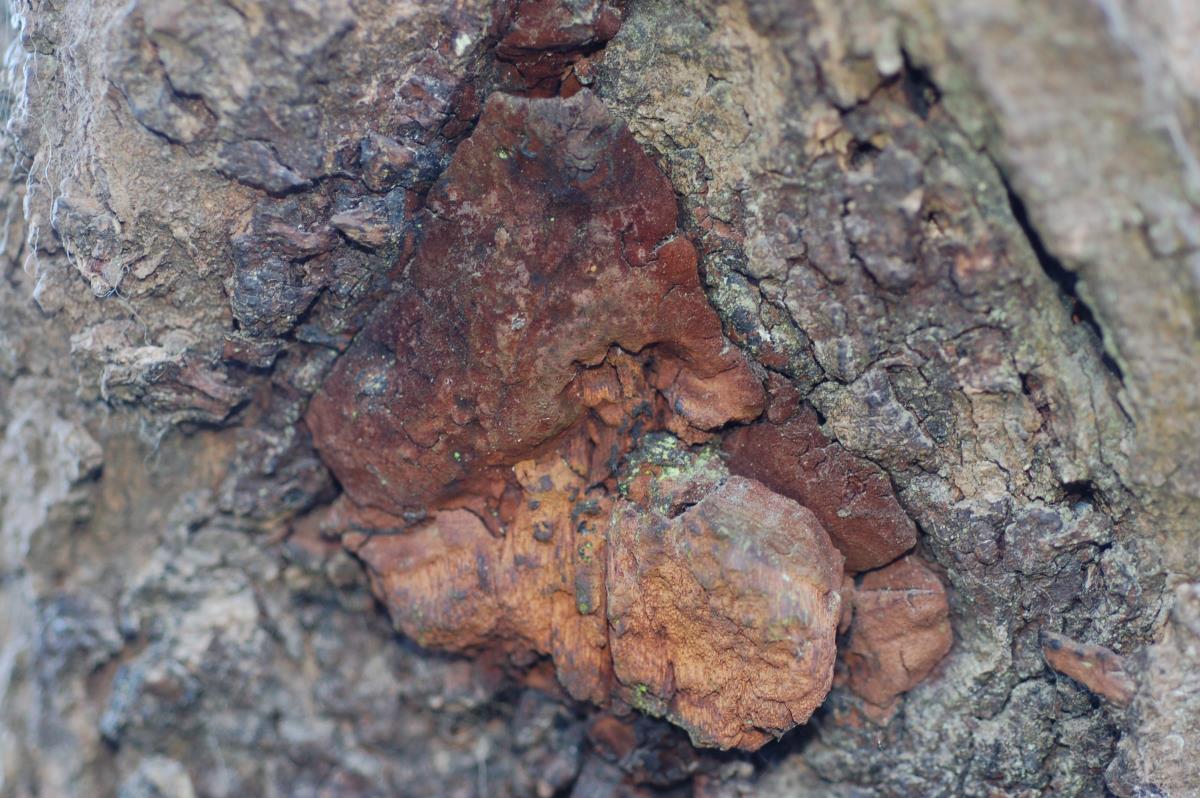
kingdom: Fungi
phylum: Basidiomycota
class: Agaricomycetes
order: Hymenochaetales
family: Hymenochaetaceae
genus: Fomitiporia
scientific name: Fomitiporia robusta
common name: Robust bracket
